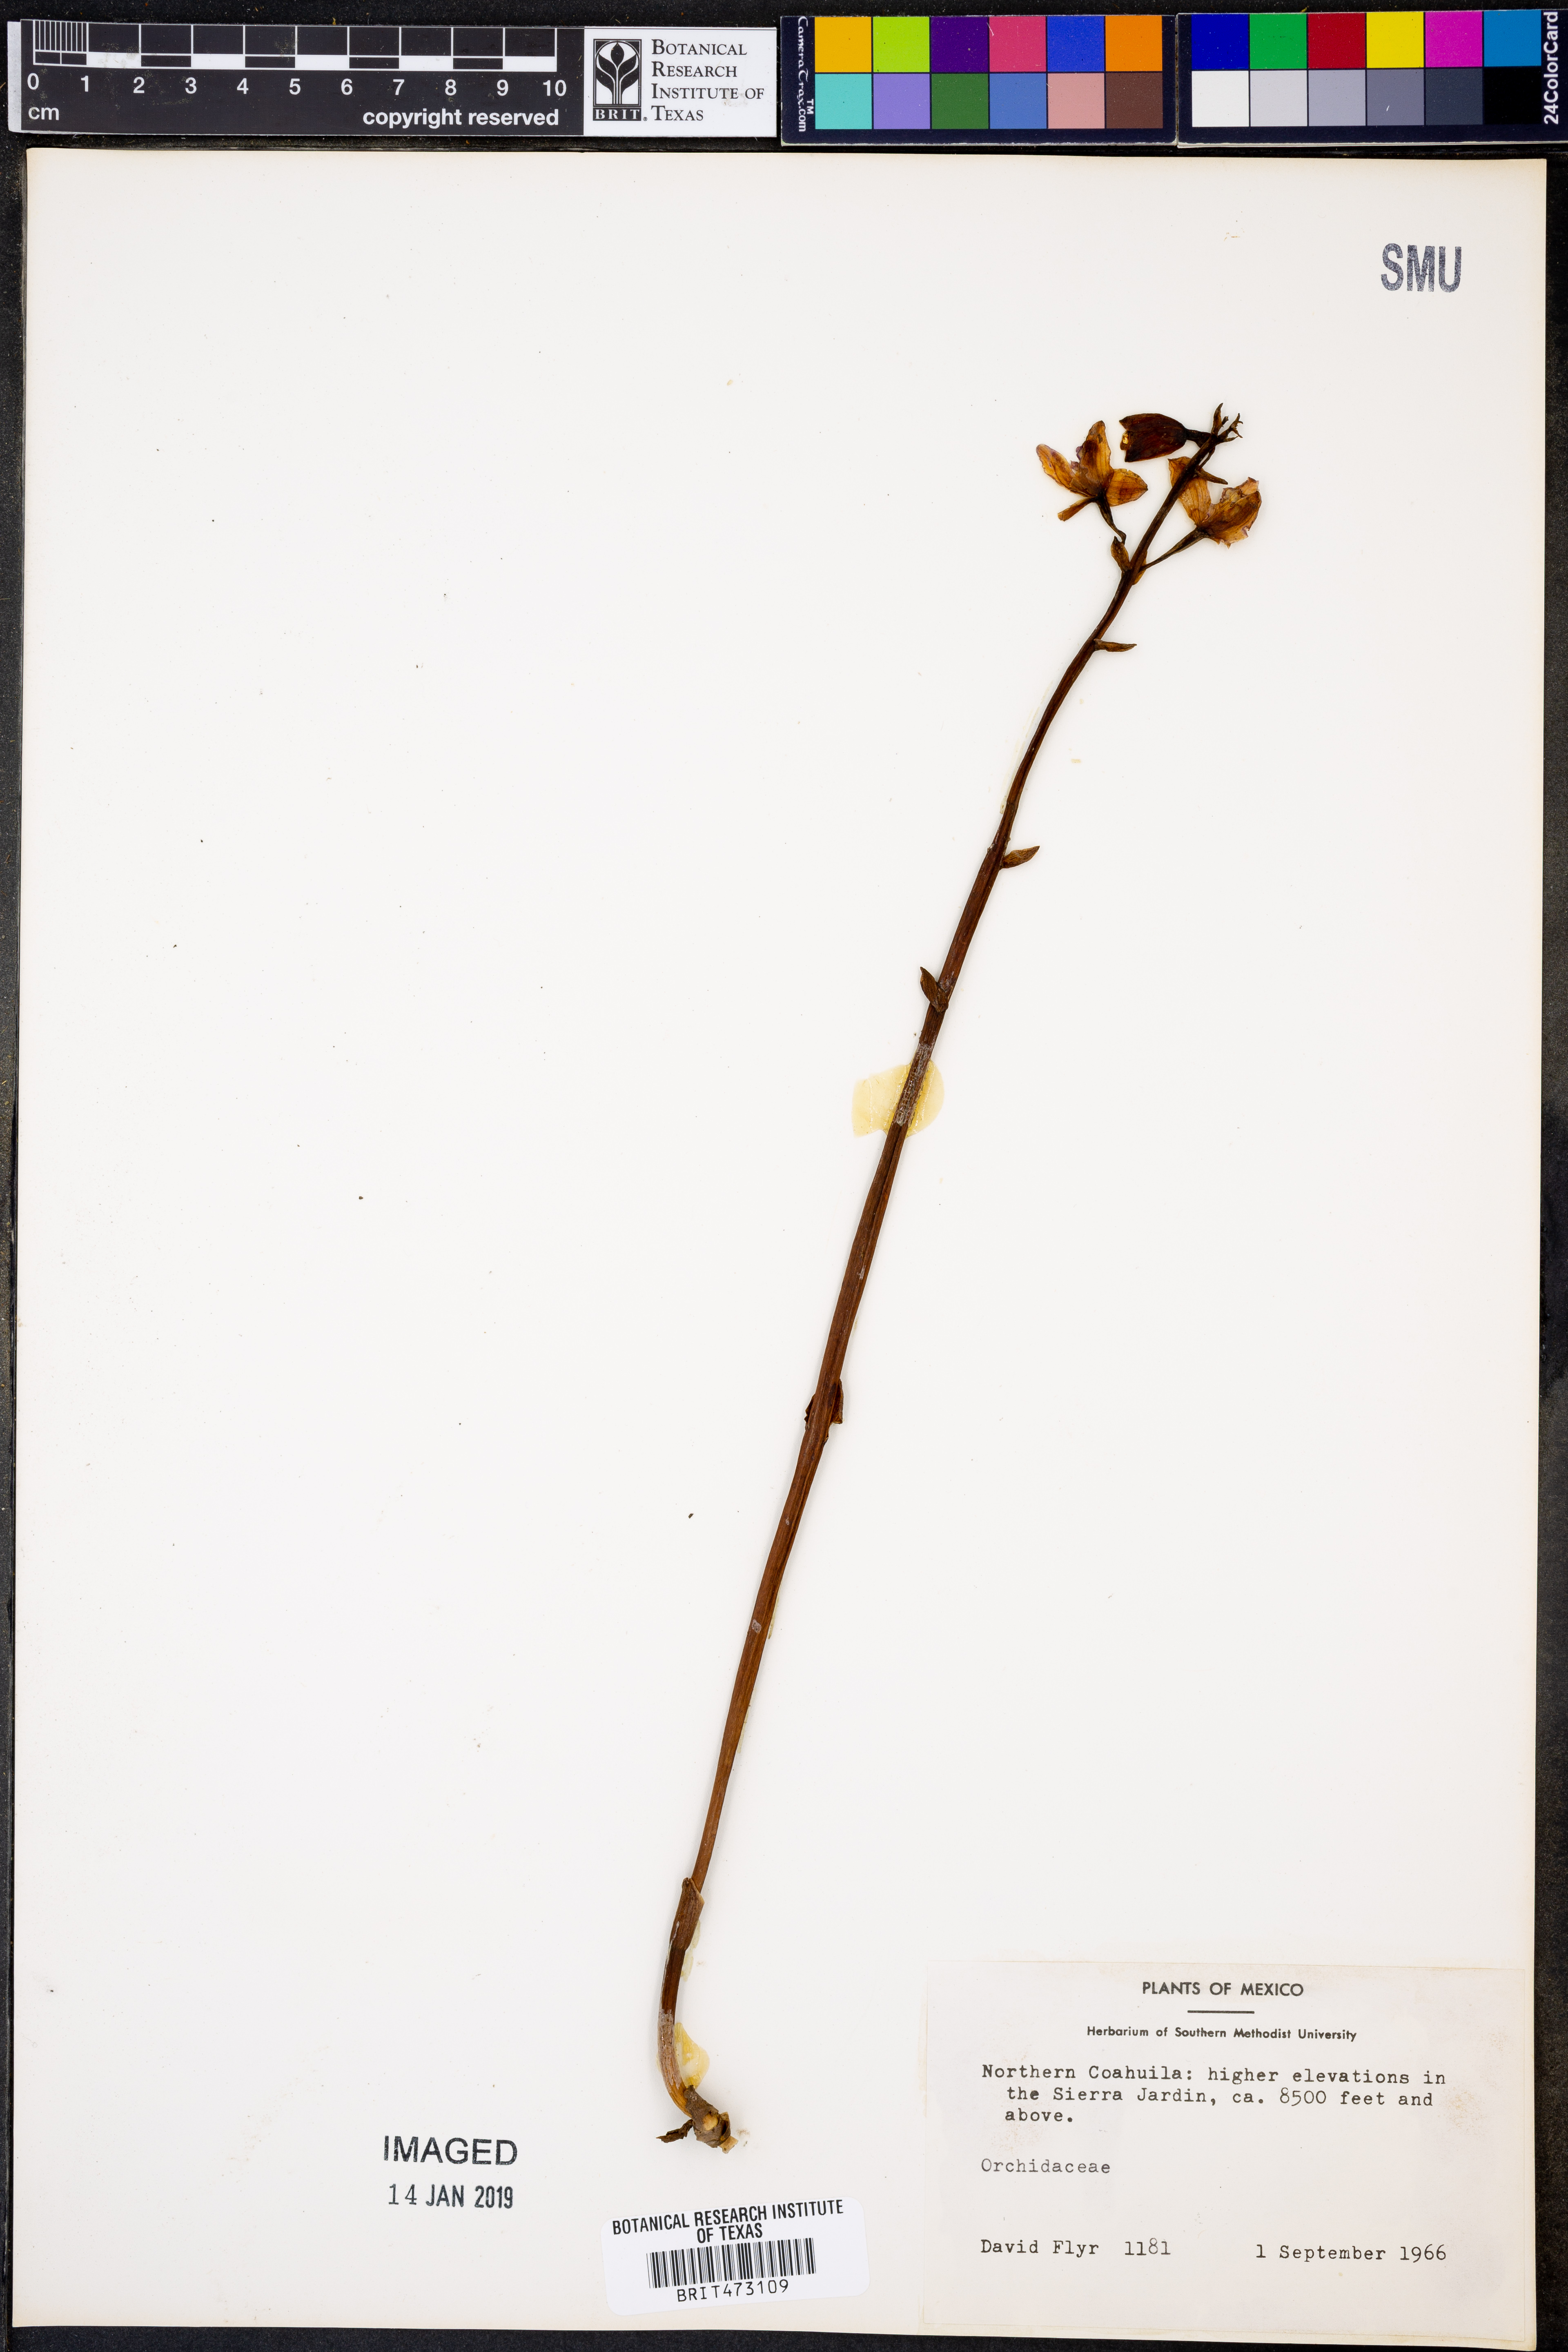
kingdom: Plantae
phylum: Tracheophyta
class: Liliopsida
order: Asparagales
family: Orchidaceae
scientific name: Orchidaceae
